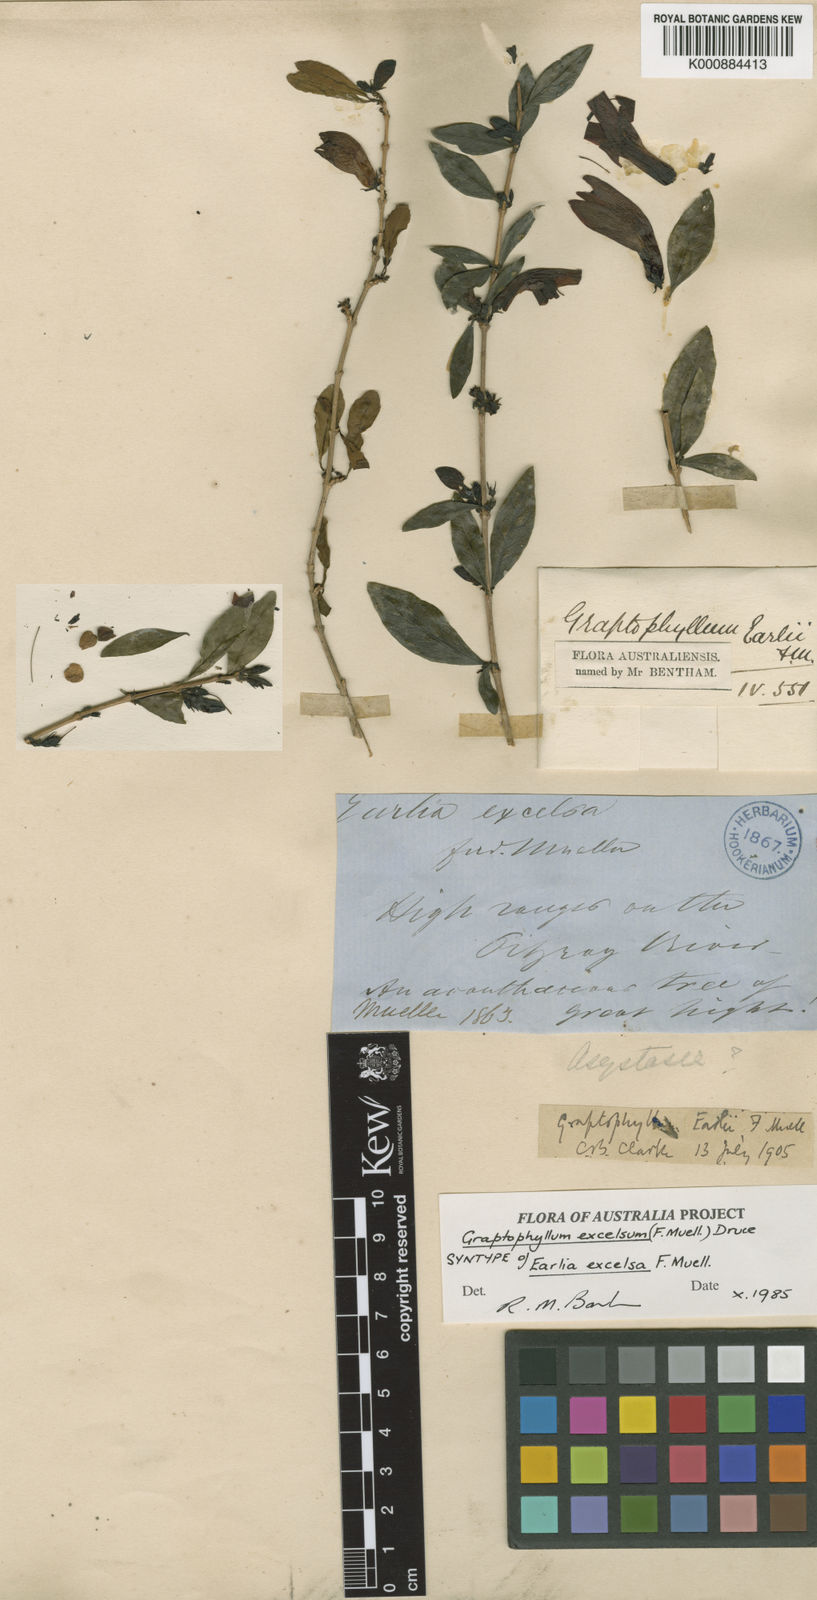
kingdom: Plantae
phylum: Tracheophyta
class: Magnoliopsida
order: Lamiales
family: Acanthaceae
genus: Graptophyllum
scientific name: Graptophyllum excelsum
